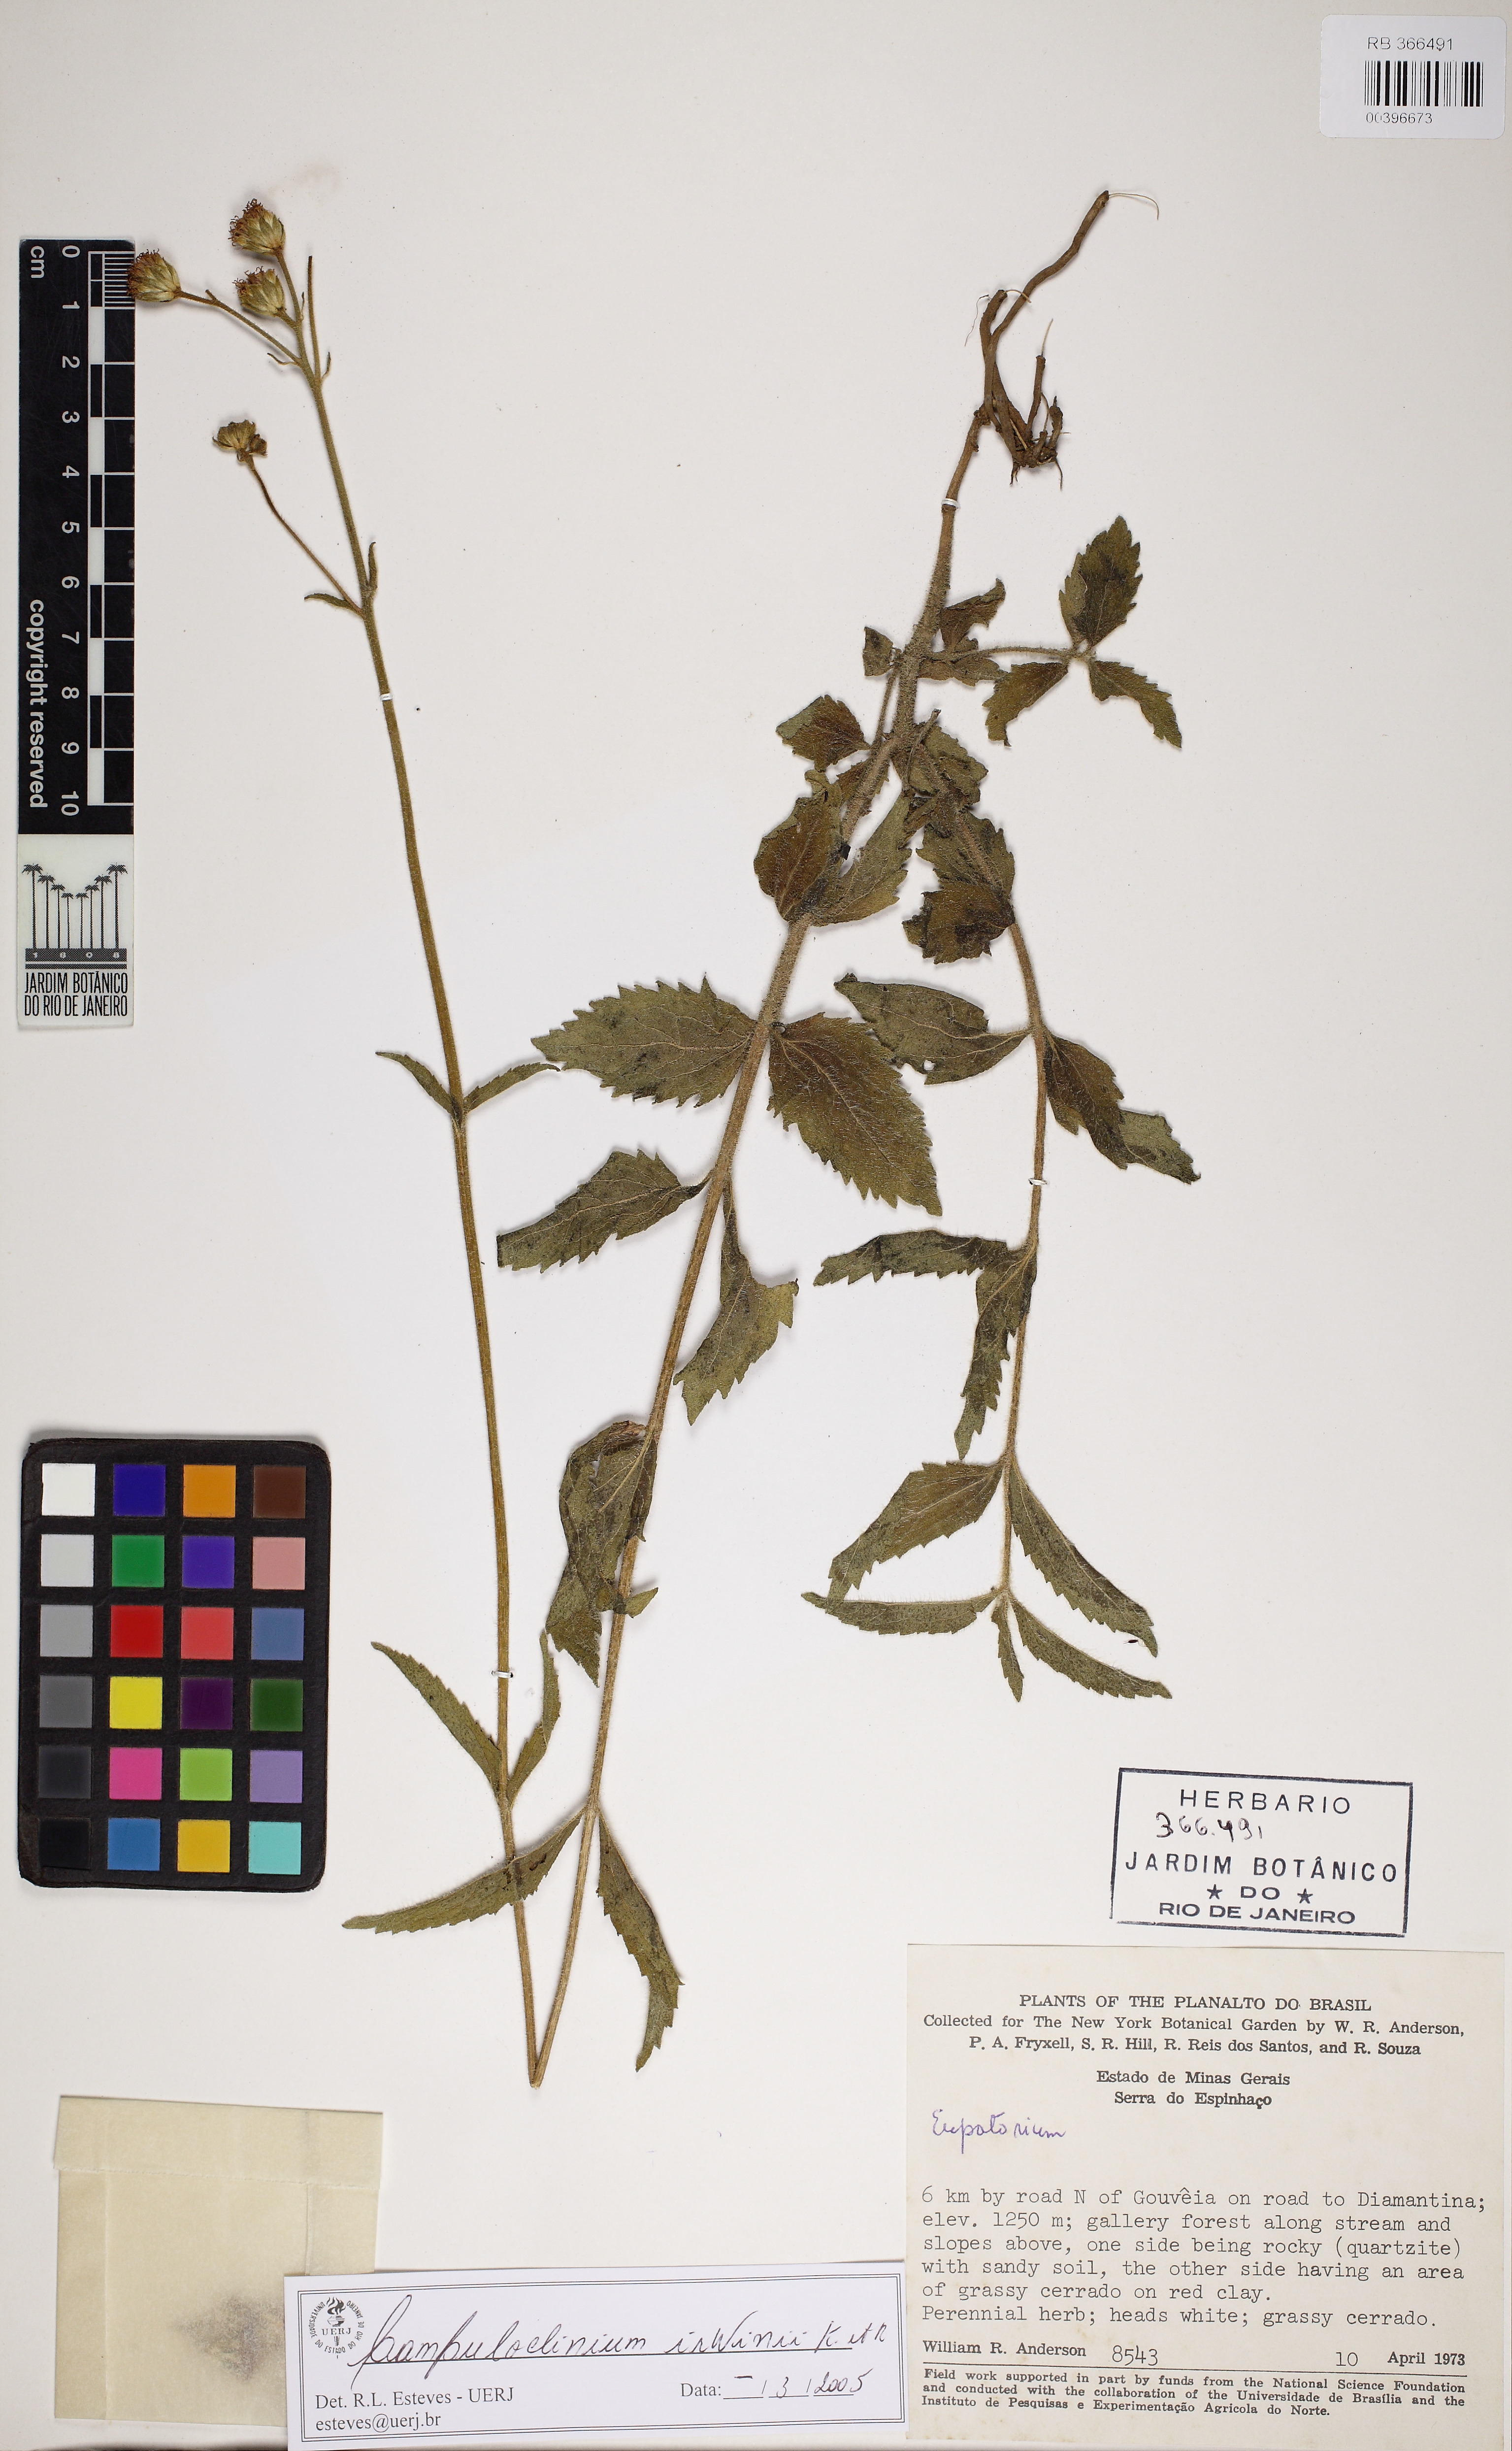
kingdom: Plantae
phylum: Tracheophyta
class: Magnoliopsida
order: Asterales
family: Asteraceae
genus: Campuloclinium
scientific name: Campuloclinium hirsutum
